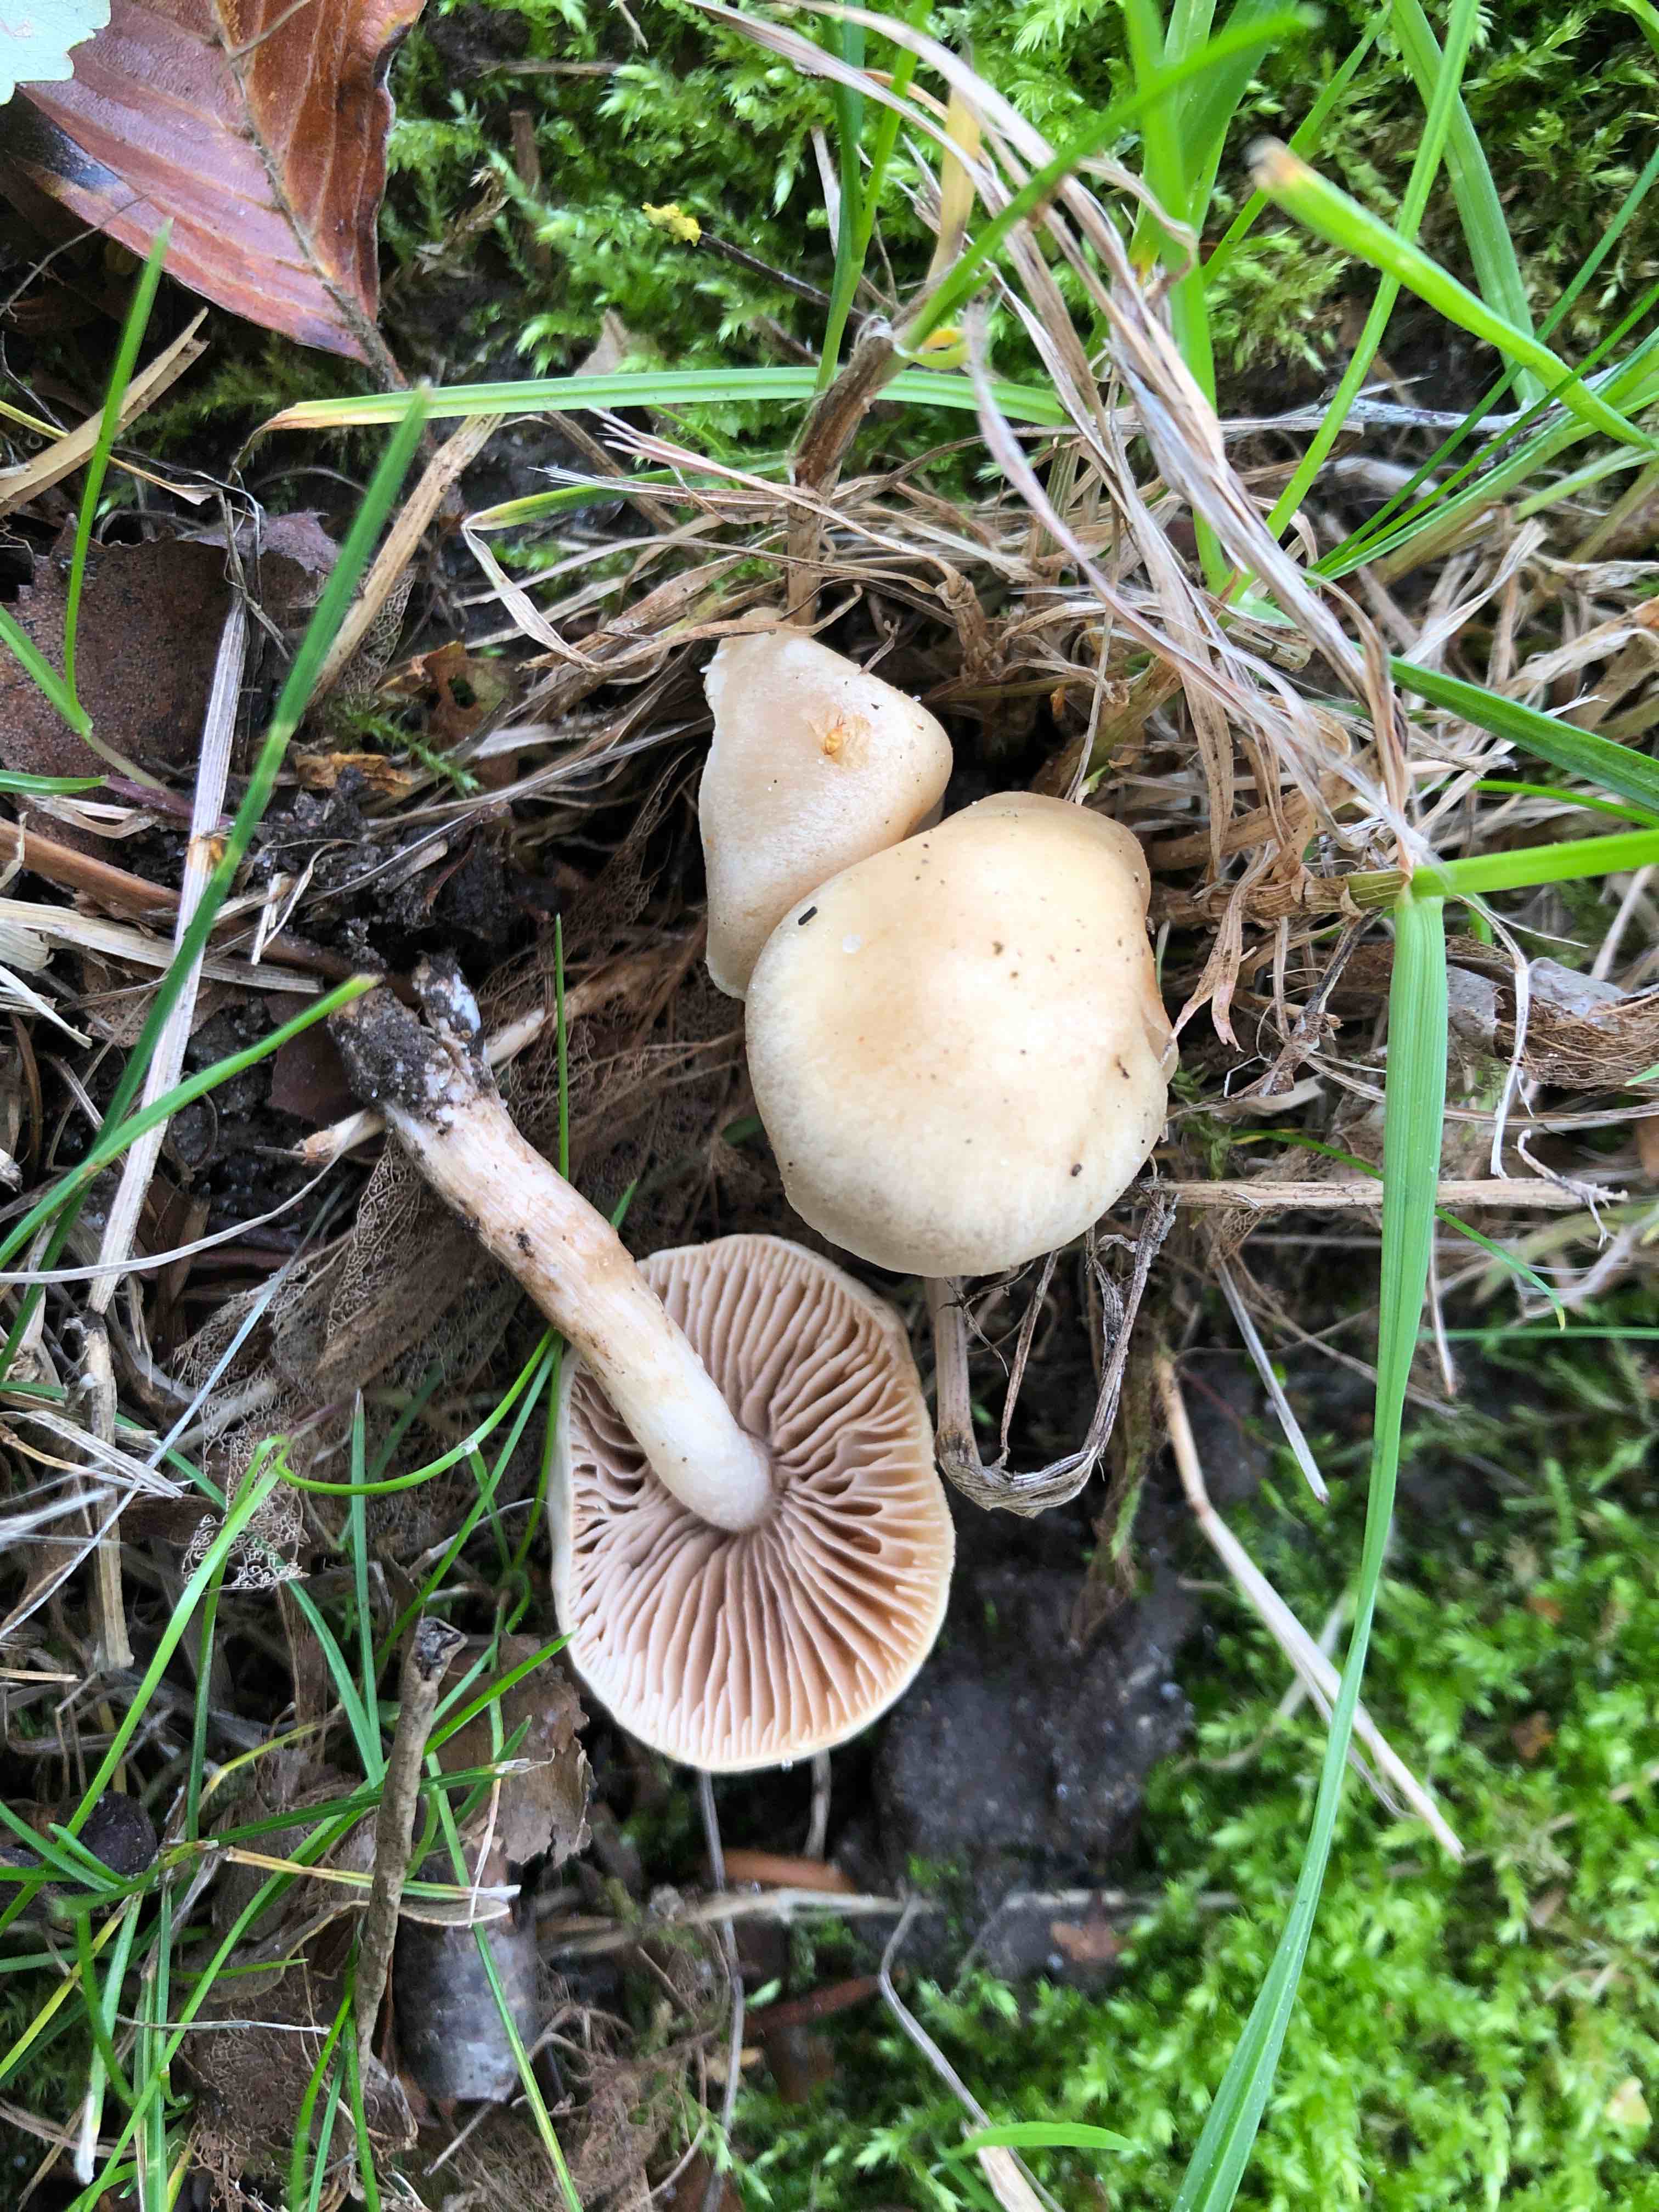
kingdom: Fungi
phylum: Basidiomycota
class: Agaricomycetes
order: Agaricales
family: Hymenogastraceae
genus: Hebeloma
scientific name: Hebeloma
